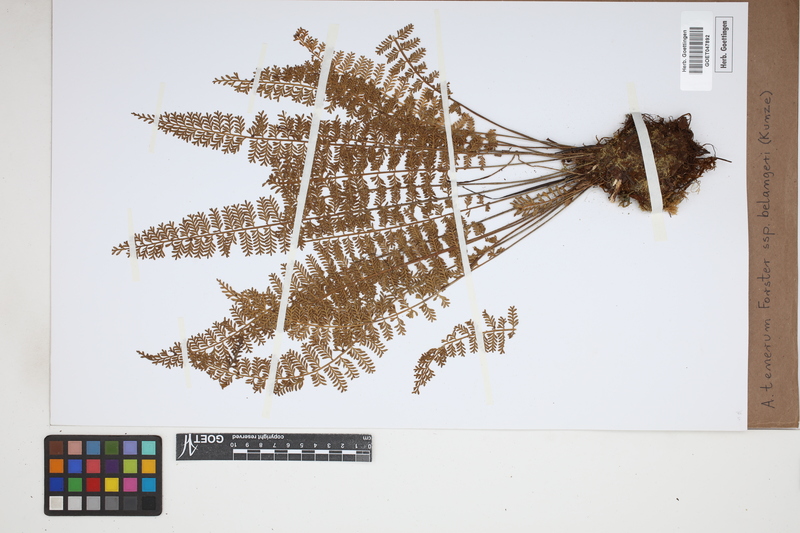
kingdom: Plantae
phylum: Tracheophyta
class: Polypodiopsida
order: Polypodiales
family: Aspleniaceae
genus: Asplenium
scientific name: Asplenium tenerum
